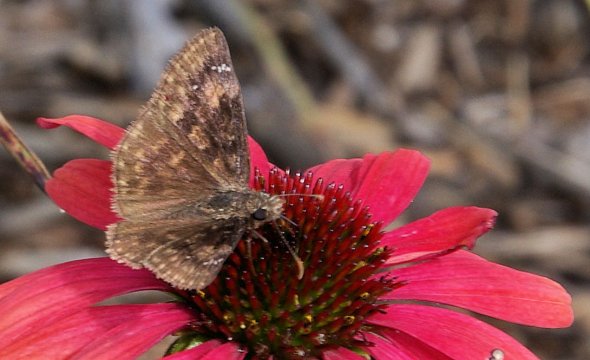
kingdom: Animalia
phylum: Arthropoda
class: Insecta
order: Lepidoptera
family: Hesperiidae
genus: Gesta
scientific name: Gesta
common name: Wild Indigo Duskywing
